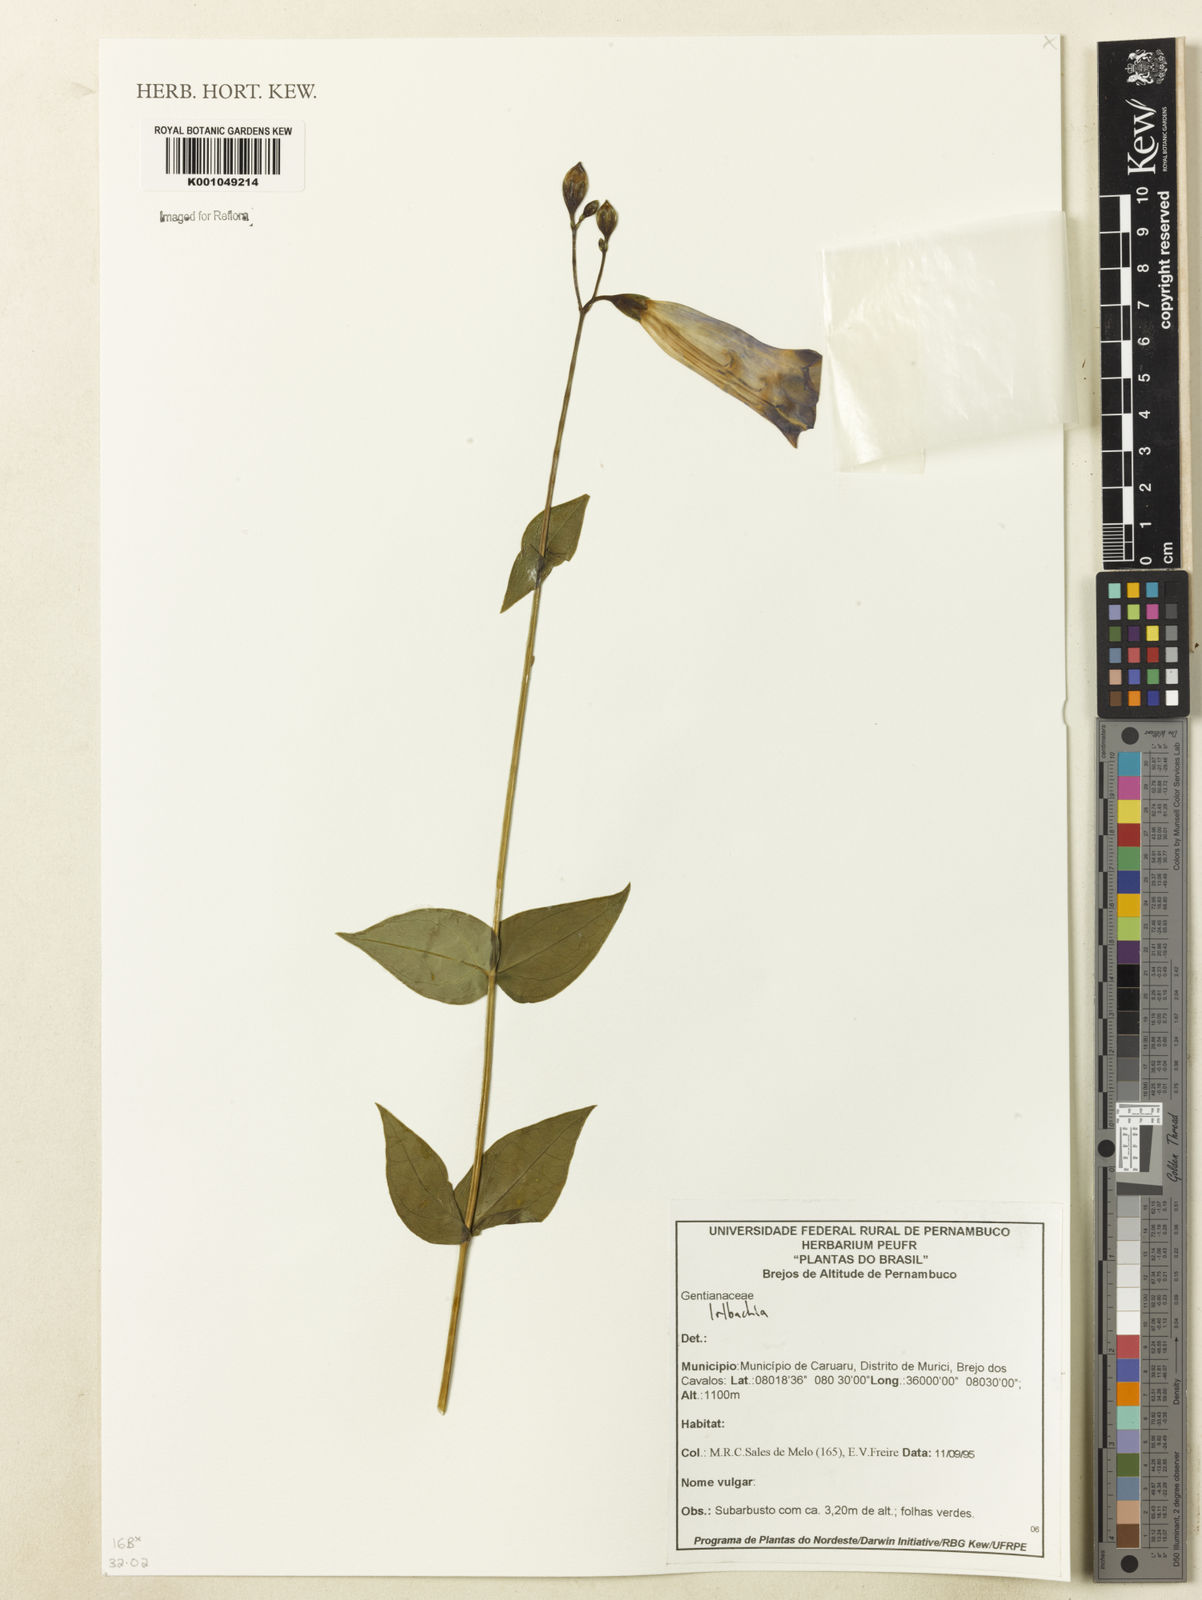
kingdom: Plantae
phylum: Tracheophyta
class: Magnoliopsida
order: Gentianales
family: Gentianaceae
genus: Irlbachia
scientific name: Irlbachia
